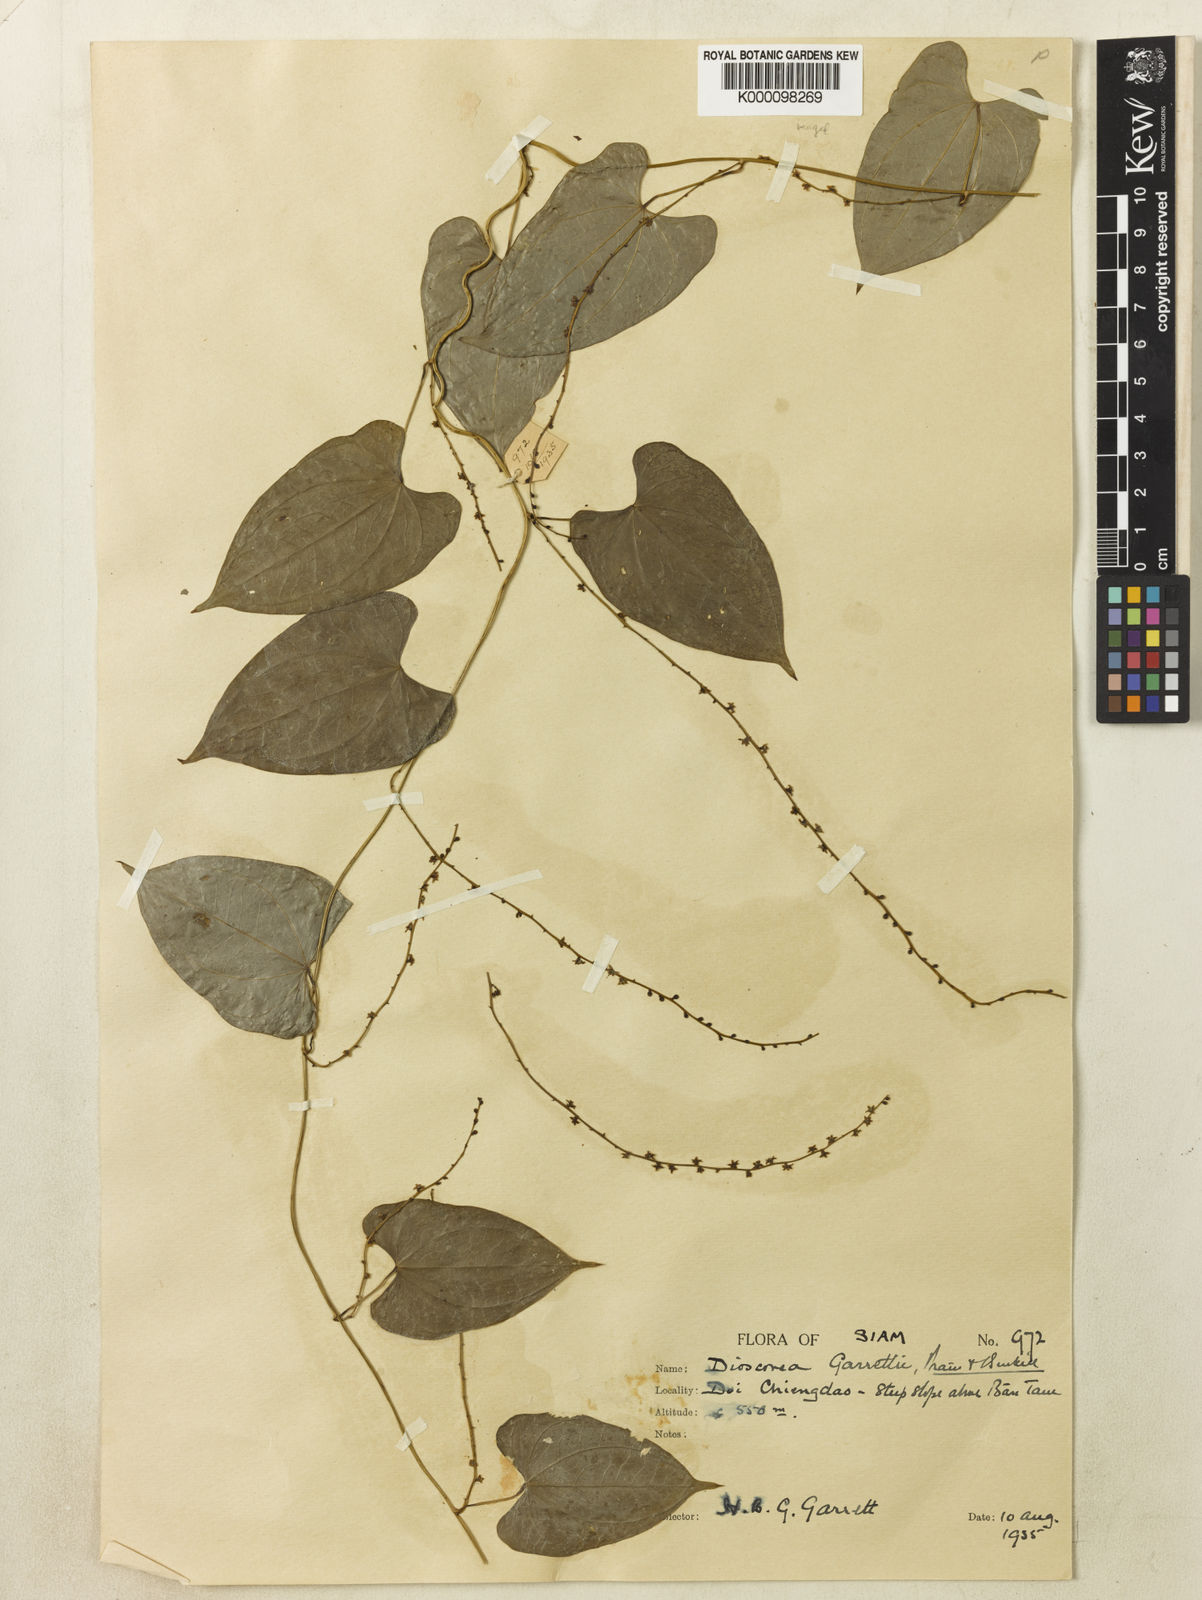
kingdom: Plantae
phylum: Tracheophyta
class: Liliopsida
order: Dioscoreales
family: Dioscoreaceae
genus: Dioscorea
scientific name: Dioscorea garrettii
